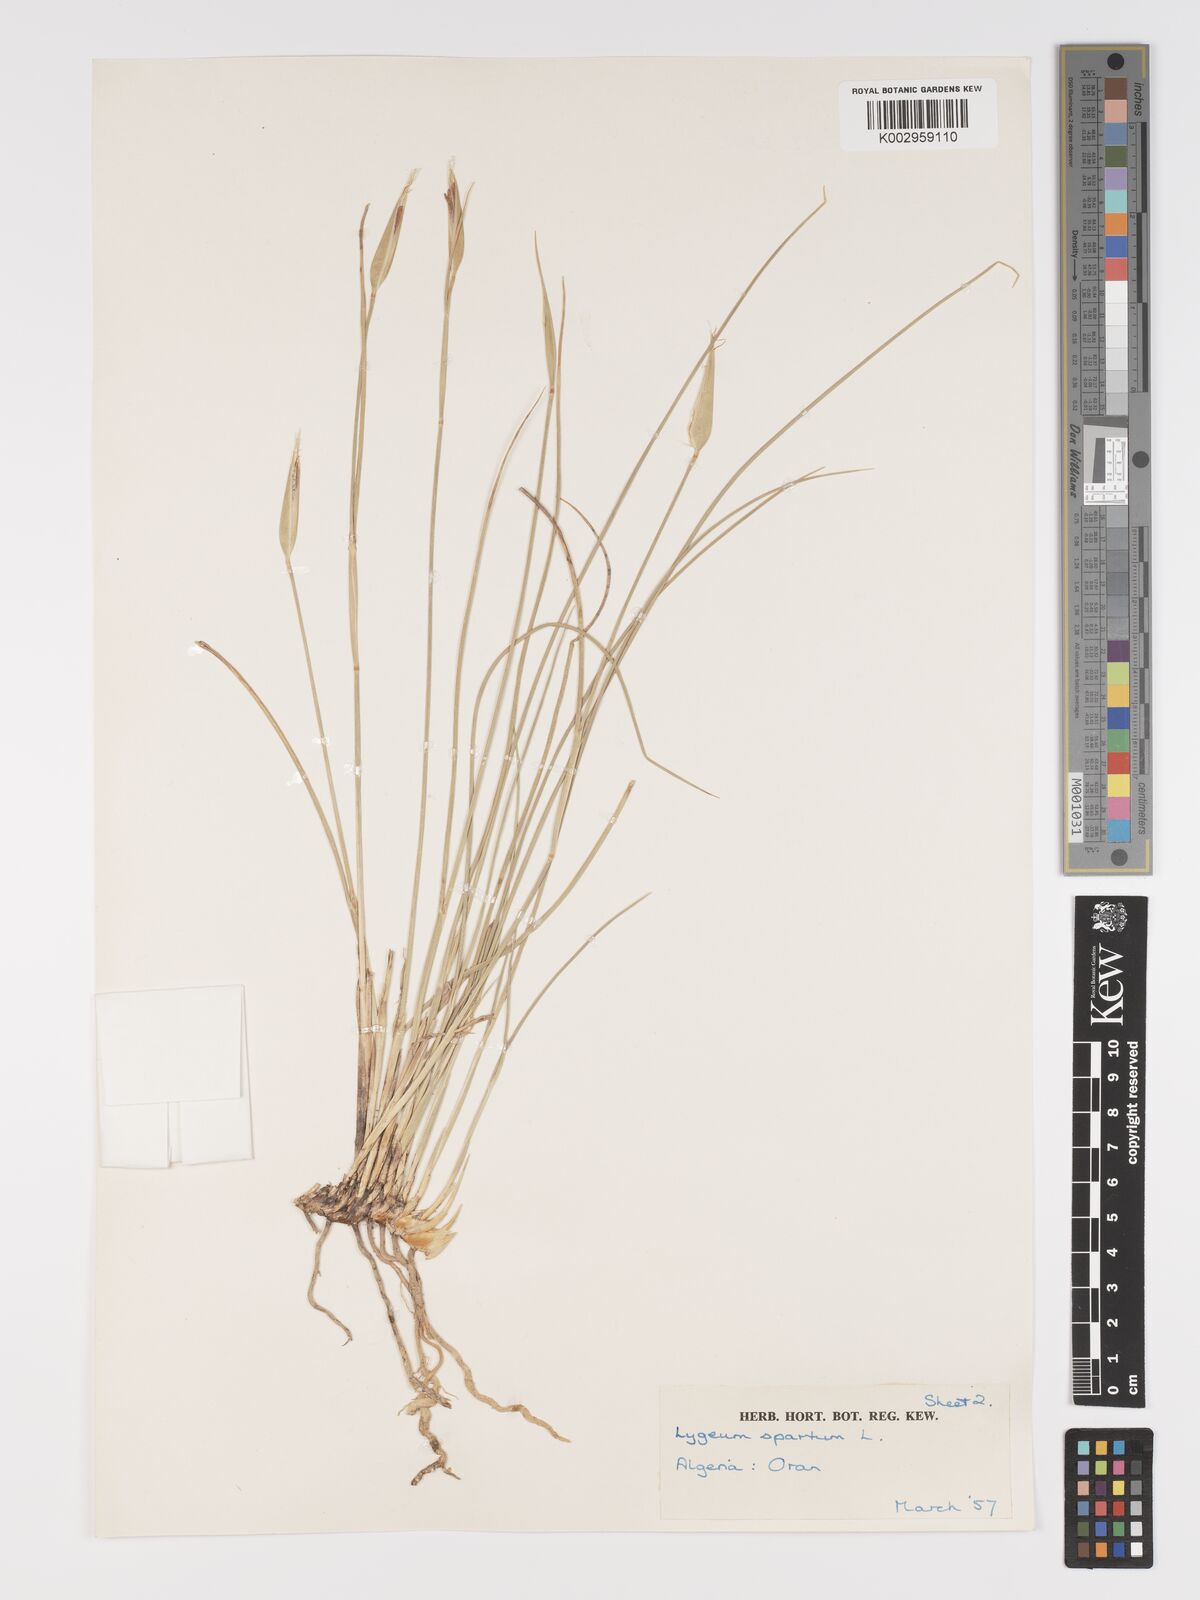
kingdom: Plantae
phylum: Tracheophyta
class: Liliopsida
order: Poales
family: Poaceae
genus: Lygeum
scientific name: Lygeum spartum
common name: Albardine
